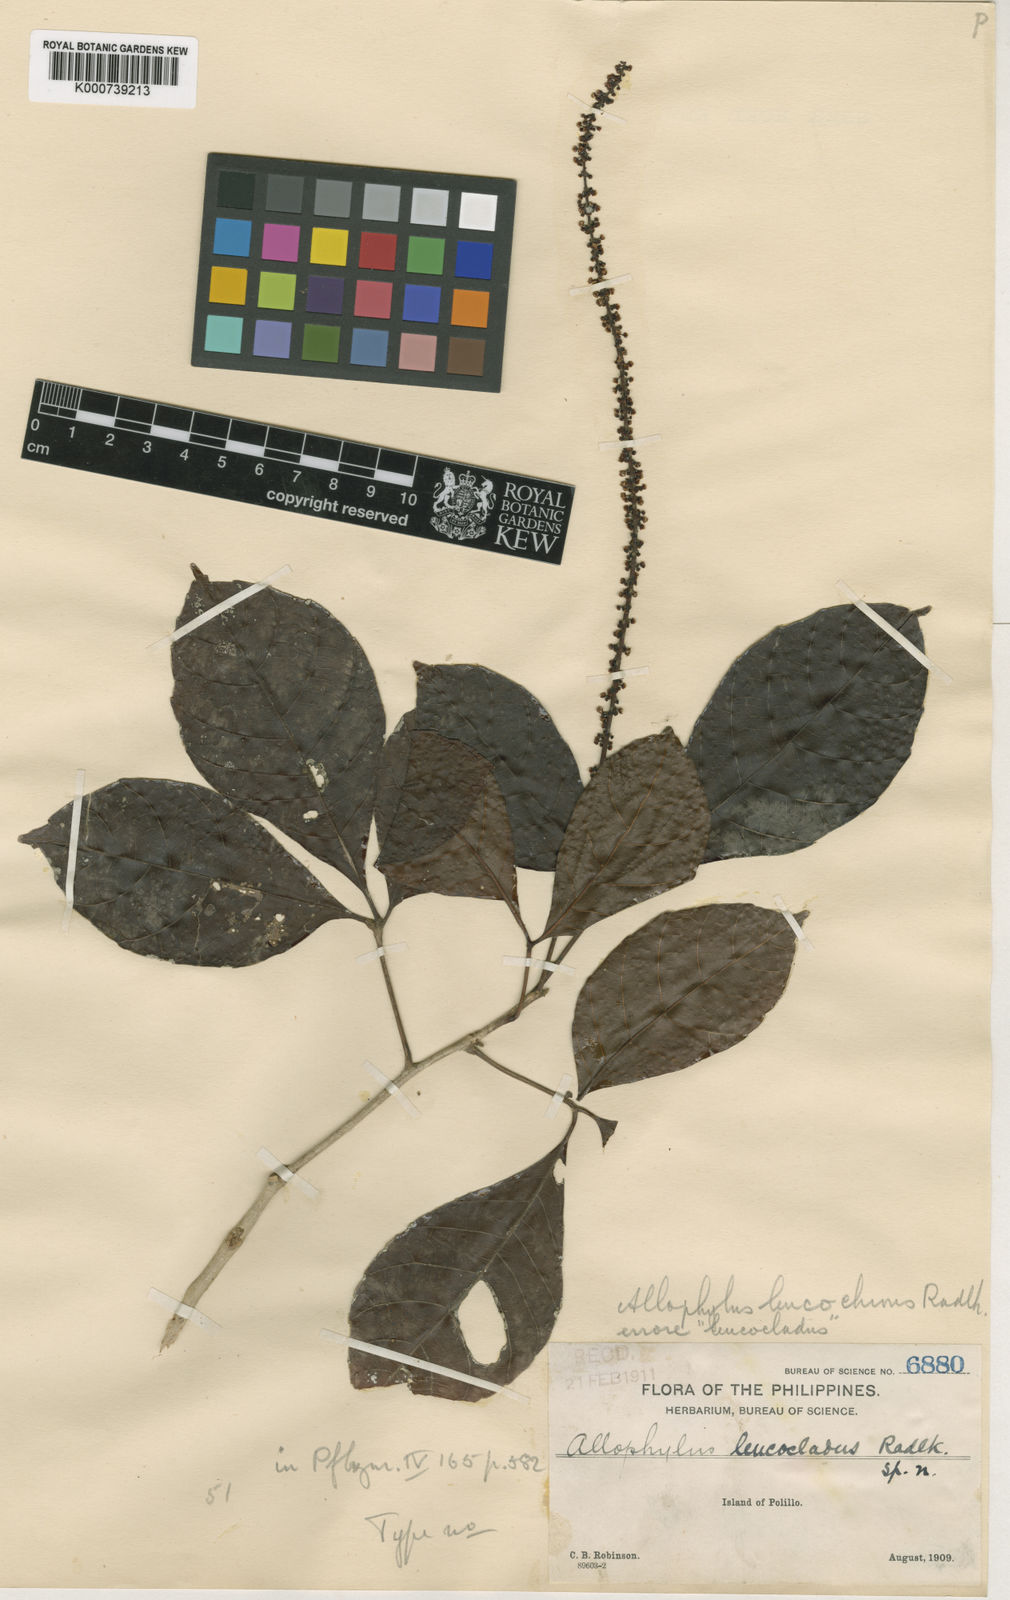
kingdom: Plantae
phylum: Tracheophyta
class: Magnoliopsida
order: Sapindales
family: Sapindaceae
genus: Allophylus
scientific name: Allophylus leucochrous
